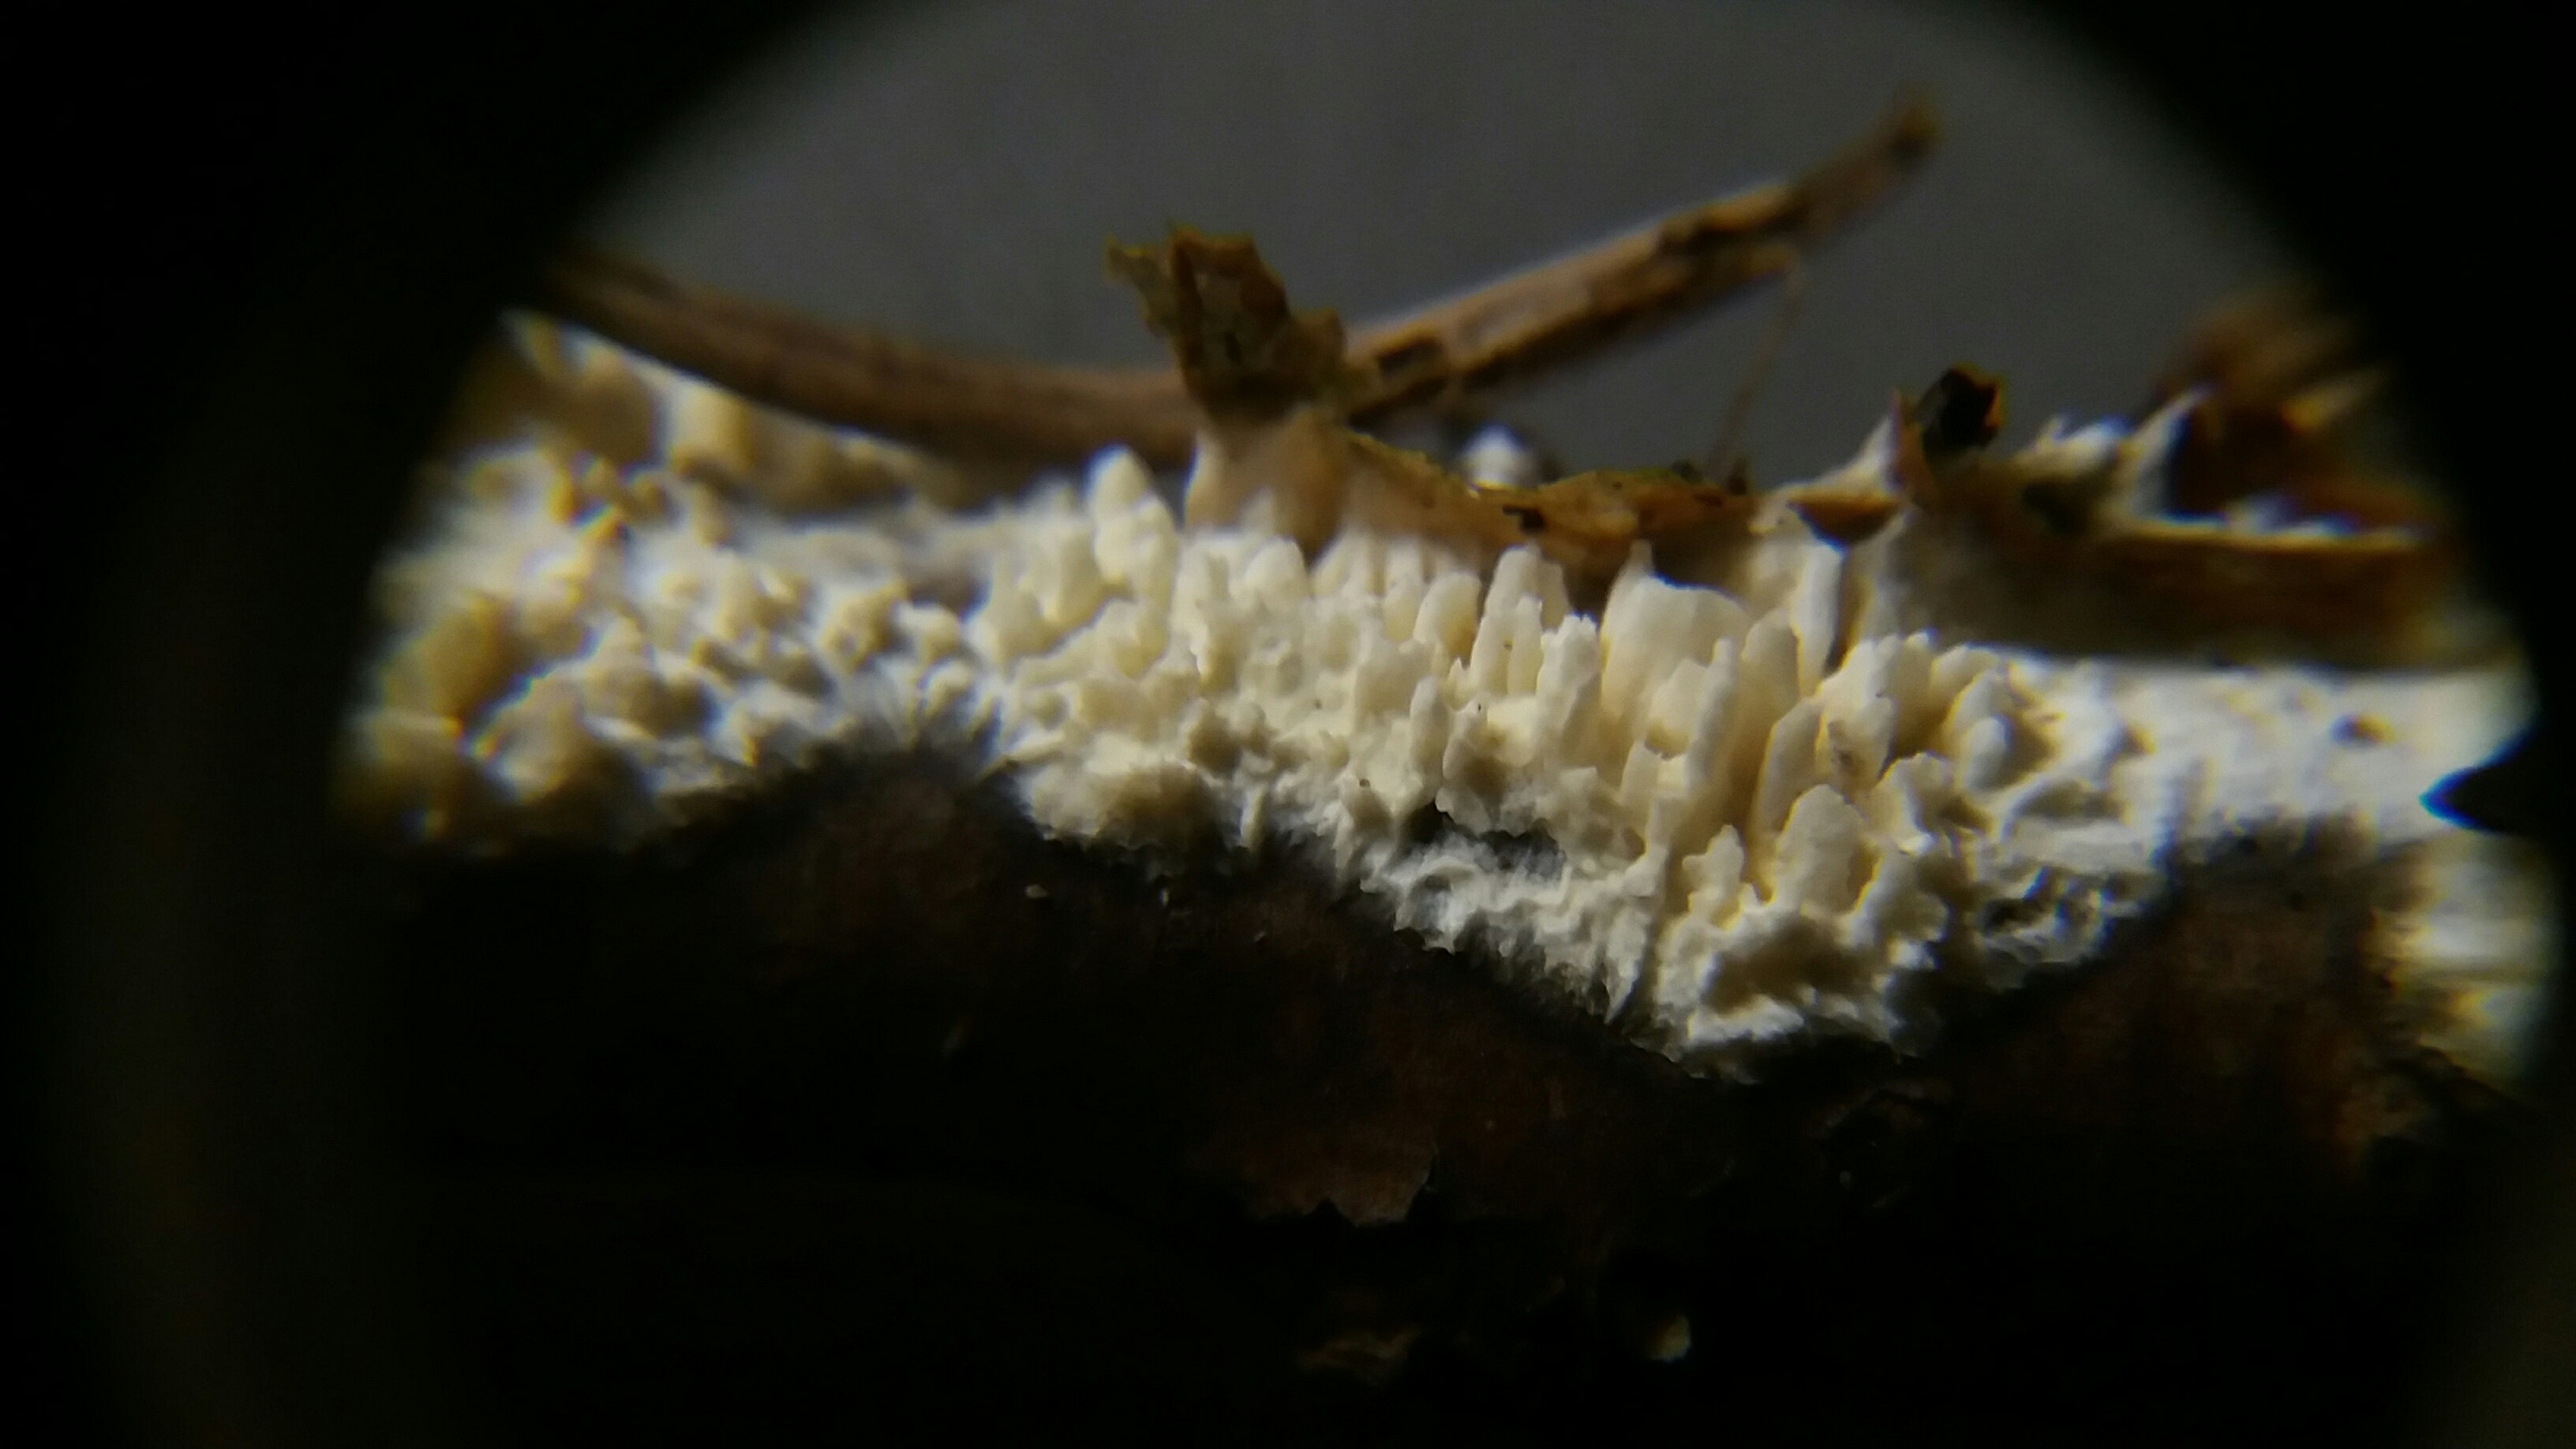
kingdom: Fungi
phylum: Basidiomycota
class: Agaricomycetes
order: Hymenochaetales
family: Schizoporaceae
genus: Xylodon
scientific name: Xylodon radula
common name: grovtandet kalkskind
